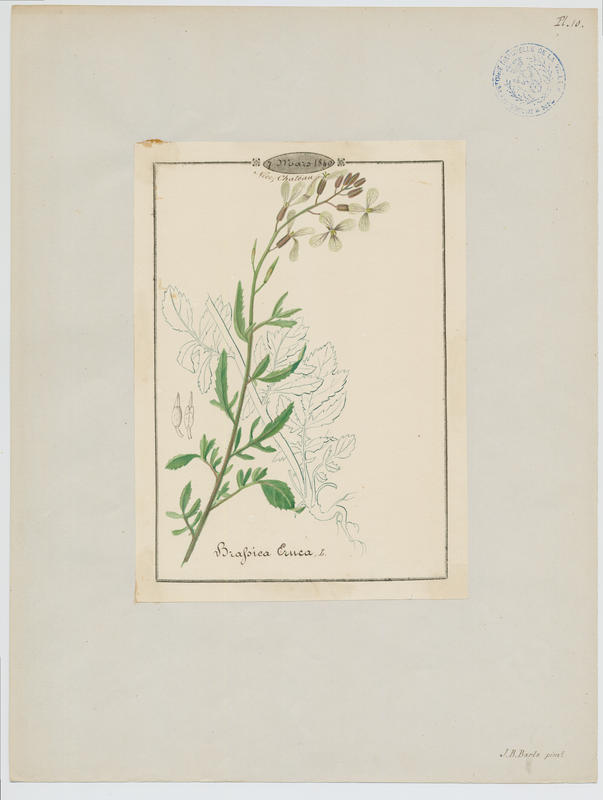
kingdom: Plantae
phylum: Tracheophyta
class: Magnoliopsida
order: Brassicales
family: Brassicaceae
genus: Eruca
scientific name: Eruca vesicaria
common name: Garden rocket
